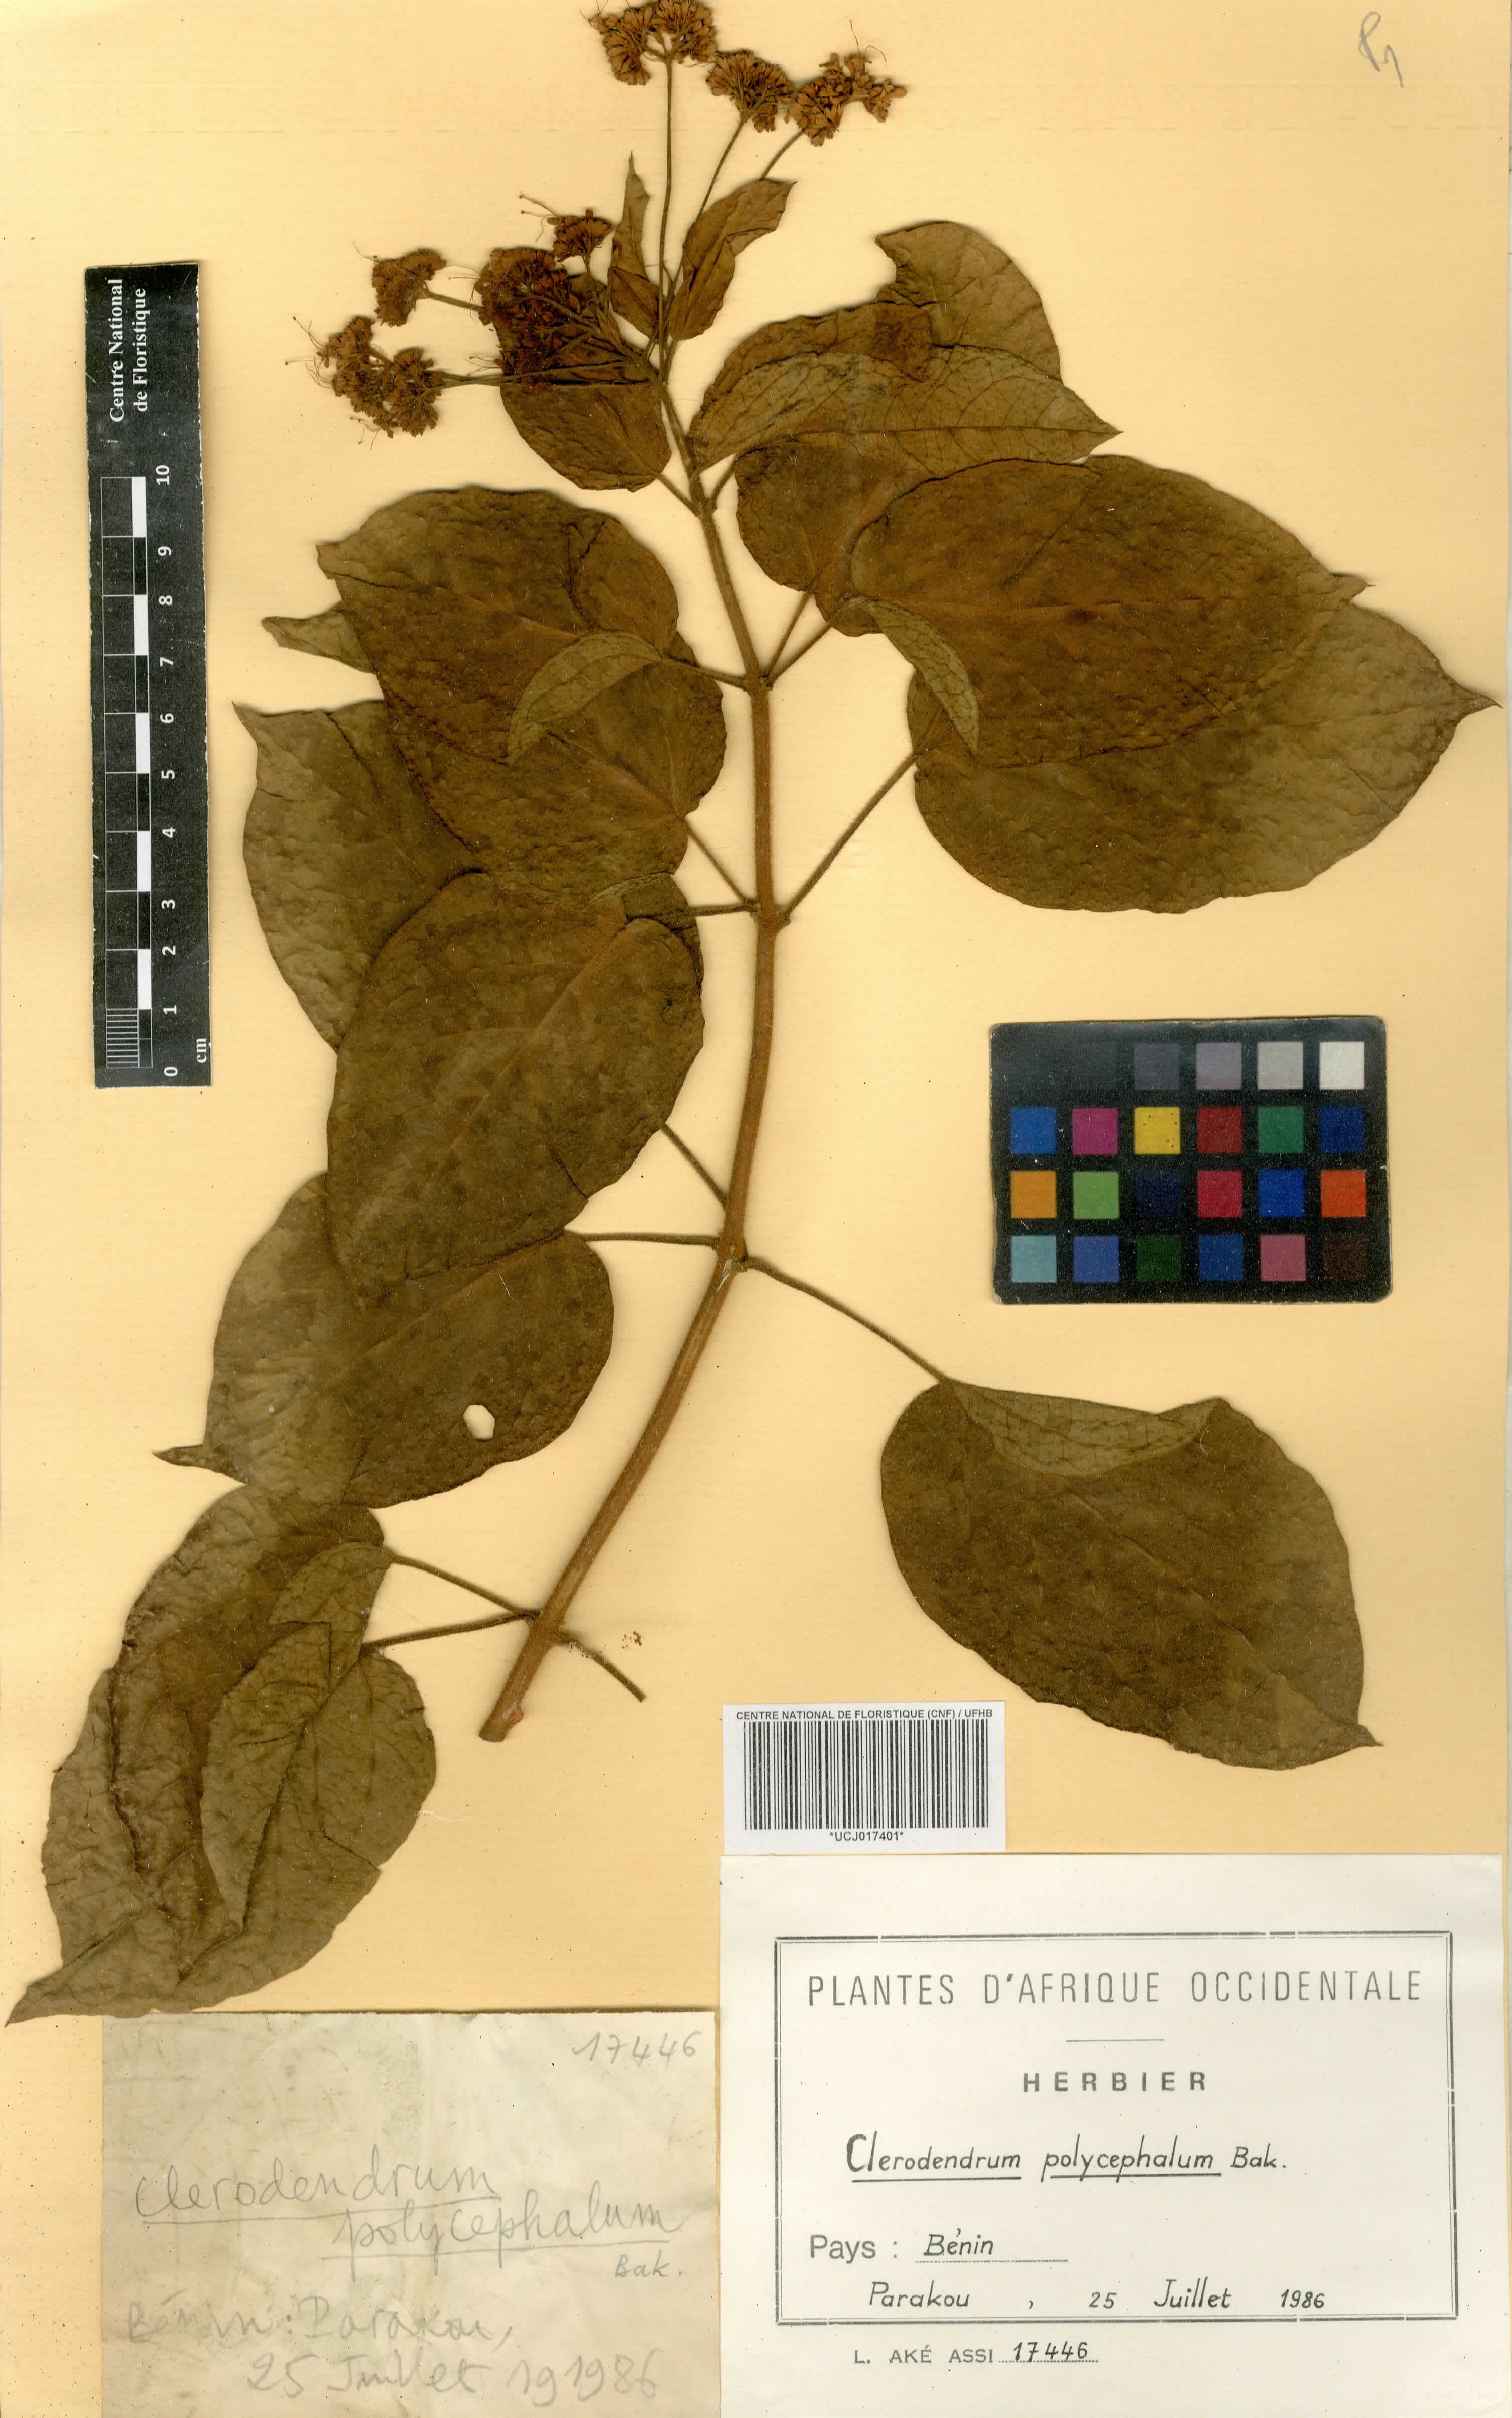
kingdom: Plantae
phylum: Tracheophyta
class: Magnoliopsida
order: Lamiales
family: Lamiaceae
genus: Clerodendrum
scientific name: Clerodendrum polycephalum
